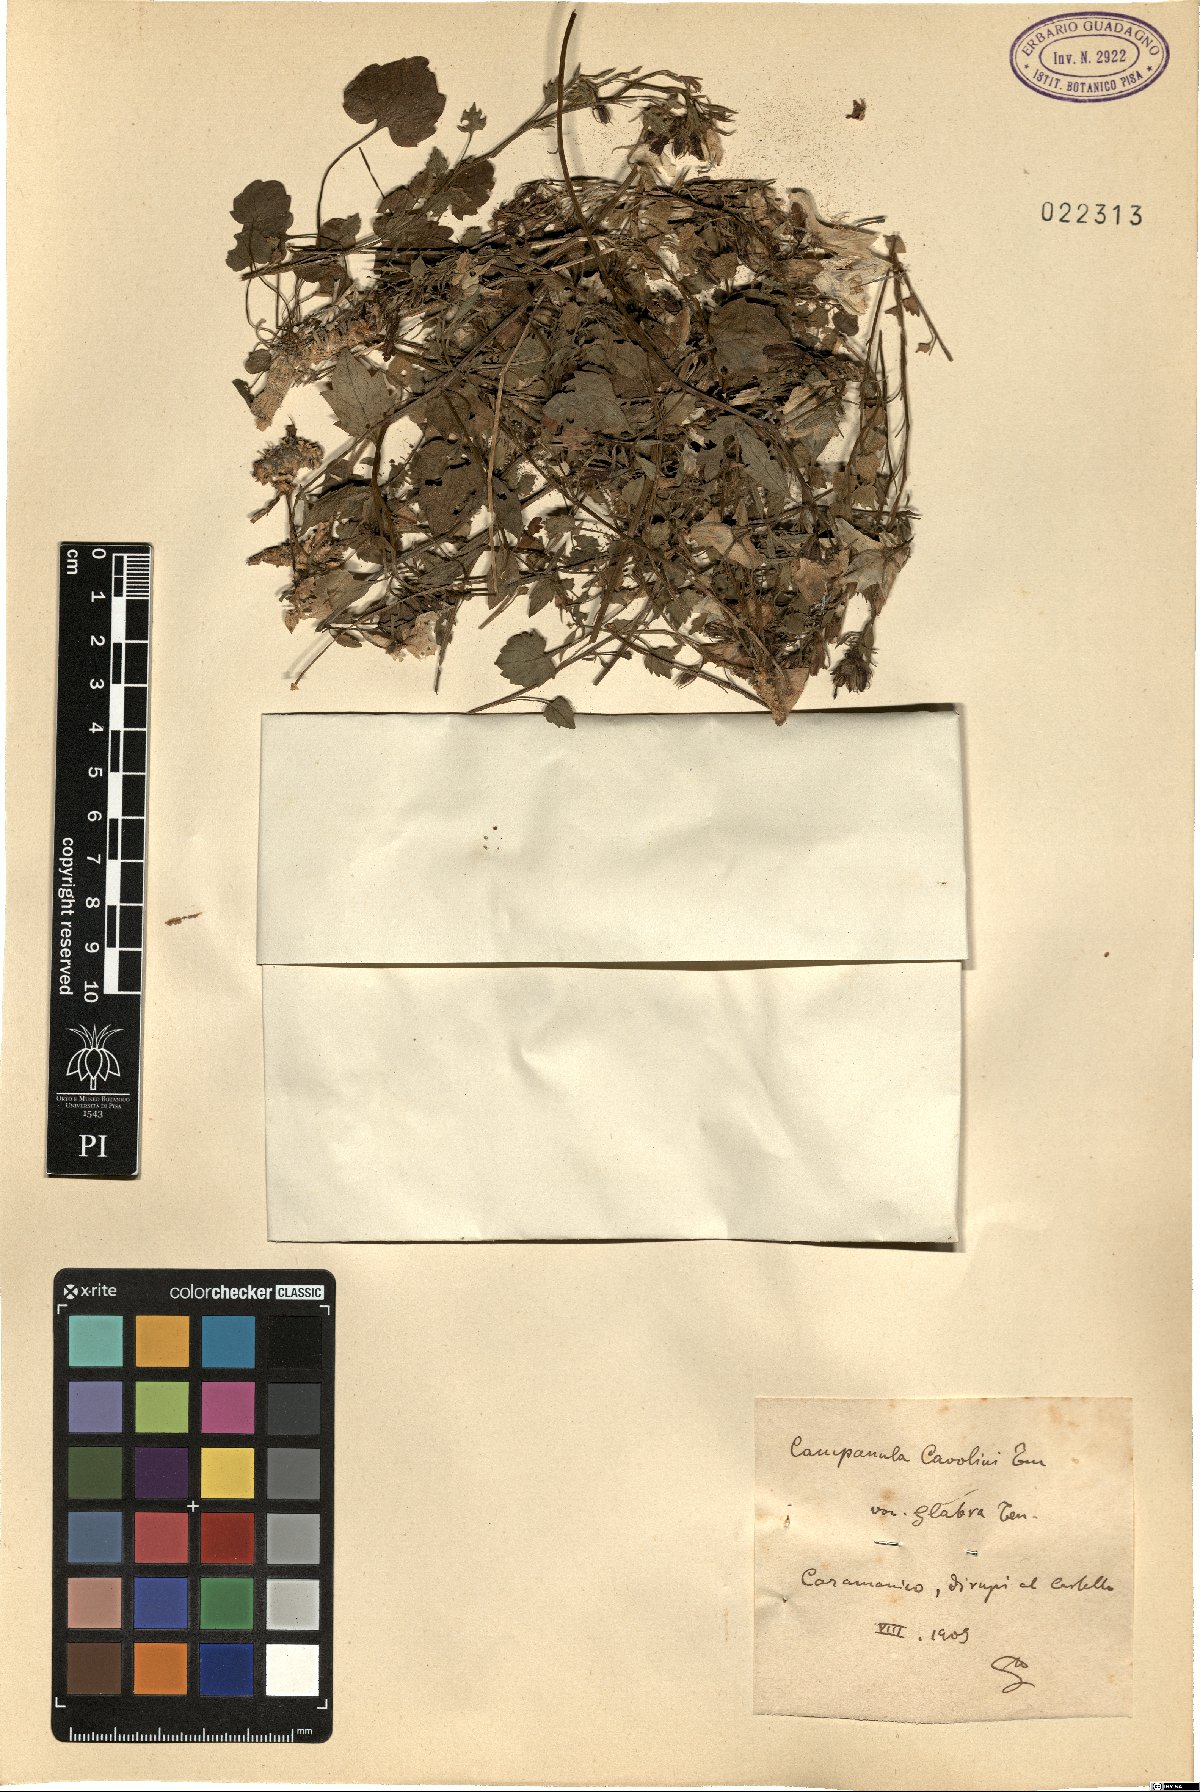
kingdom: Plantae
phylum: Tracheophyta
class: Magnoliopsida
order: Asterales
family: Campanulaceae
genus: Campanula
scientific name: Campanula fragilis
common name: Italian bellflower
